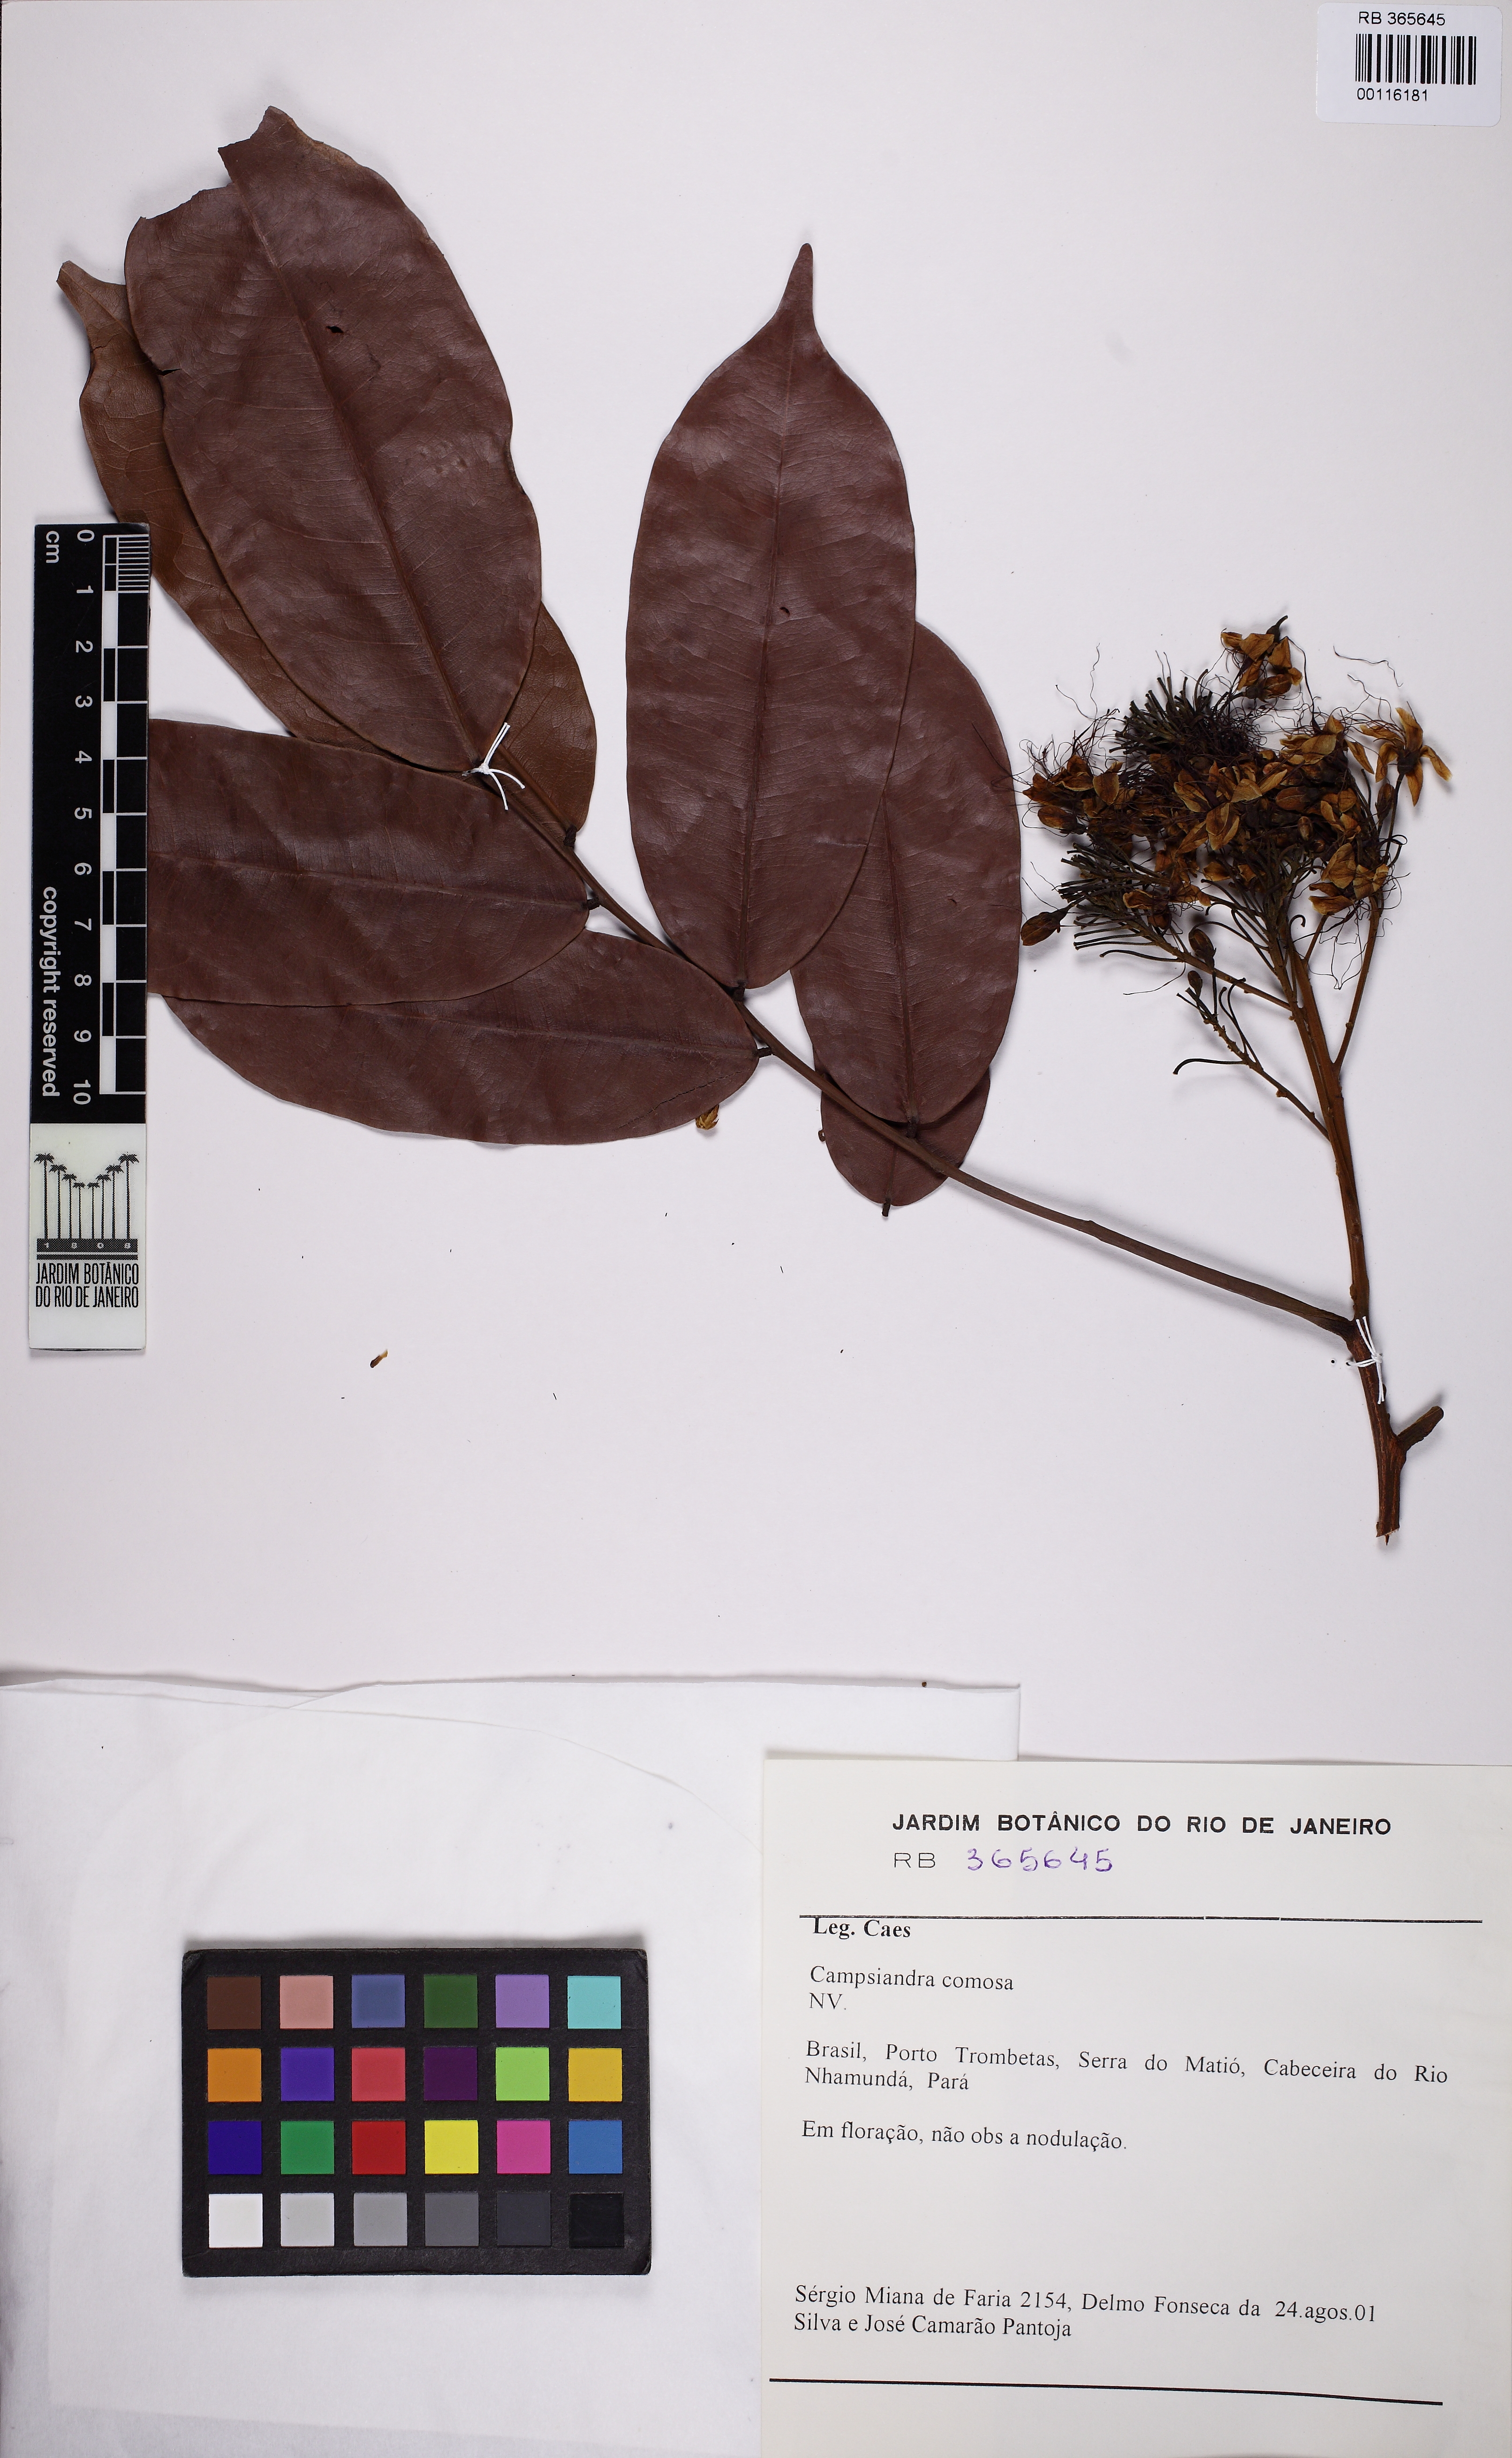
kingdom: Plantae
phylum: Tracheophyta
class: Magnoliopsida
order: Fabales
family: Fabaceae
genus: Campsiandra
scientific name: Campsiandra comosa
